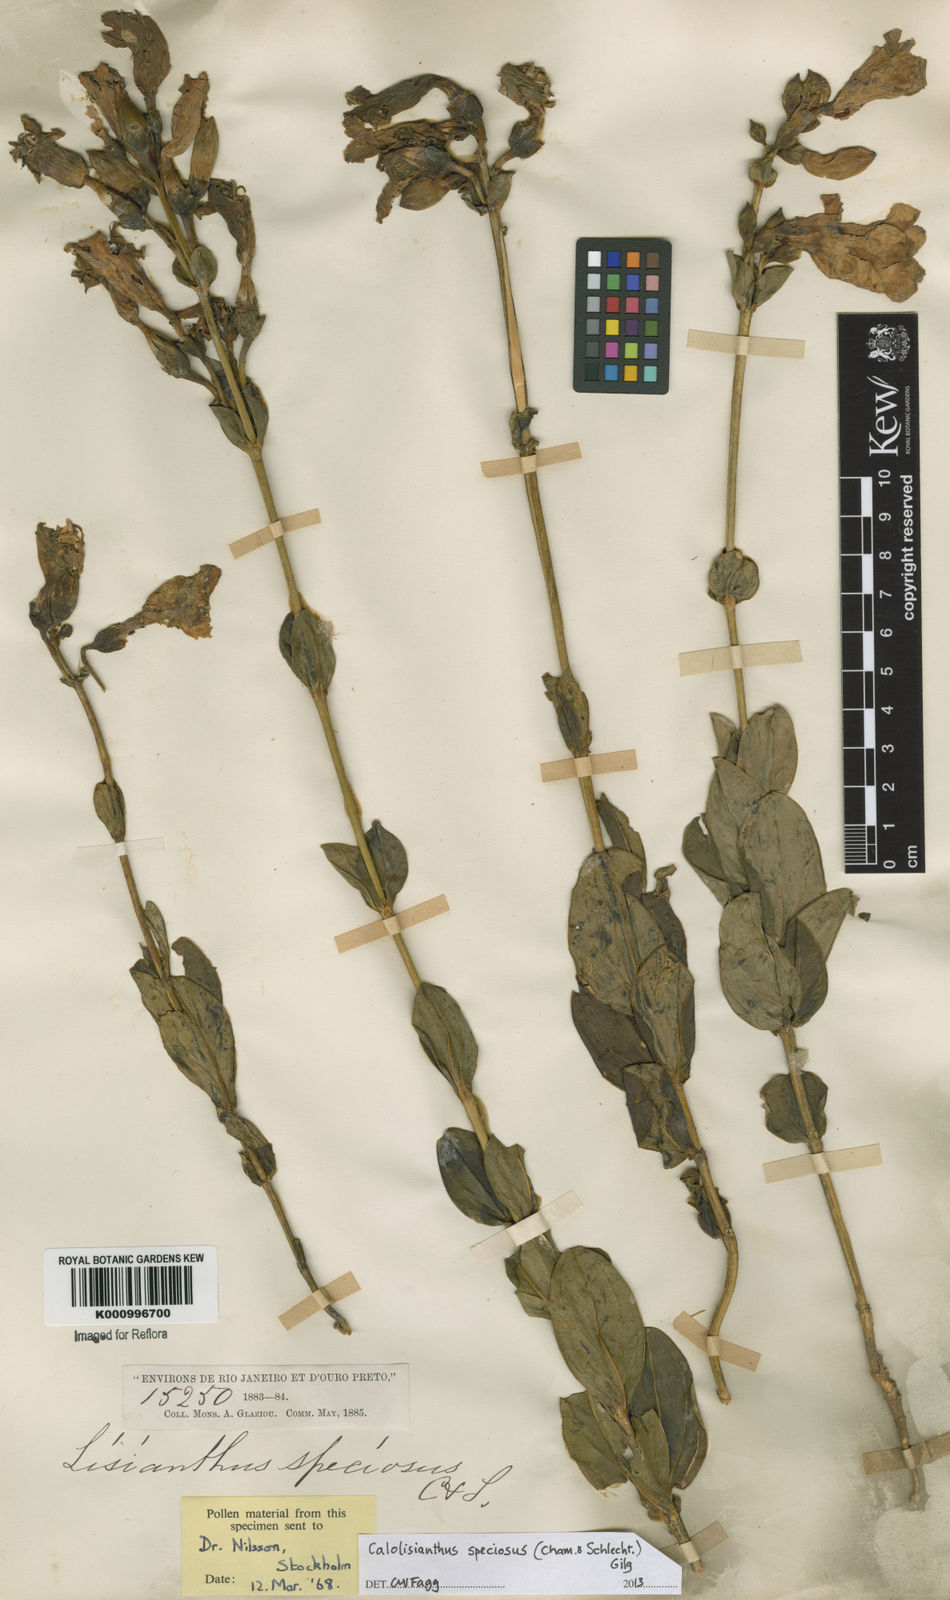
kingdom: Plantae
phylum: Tracheophyta
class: Magnoliopsida
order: Gentianales
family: Gentianaceae
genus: Calolisianthus
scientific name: Calolisianthus speciosus
